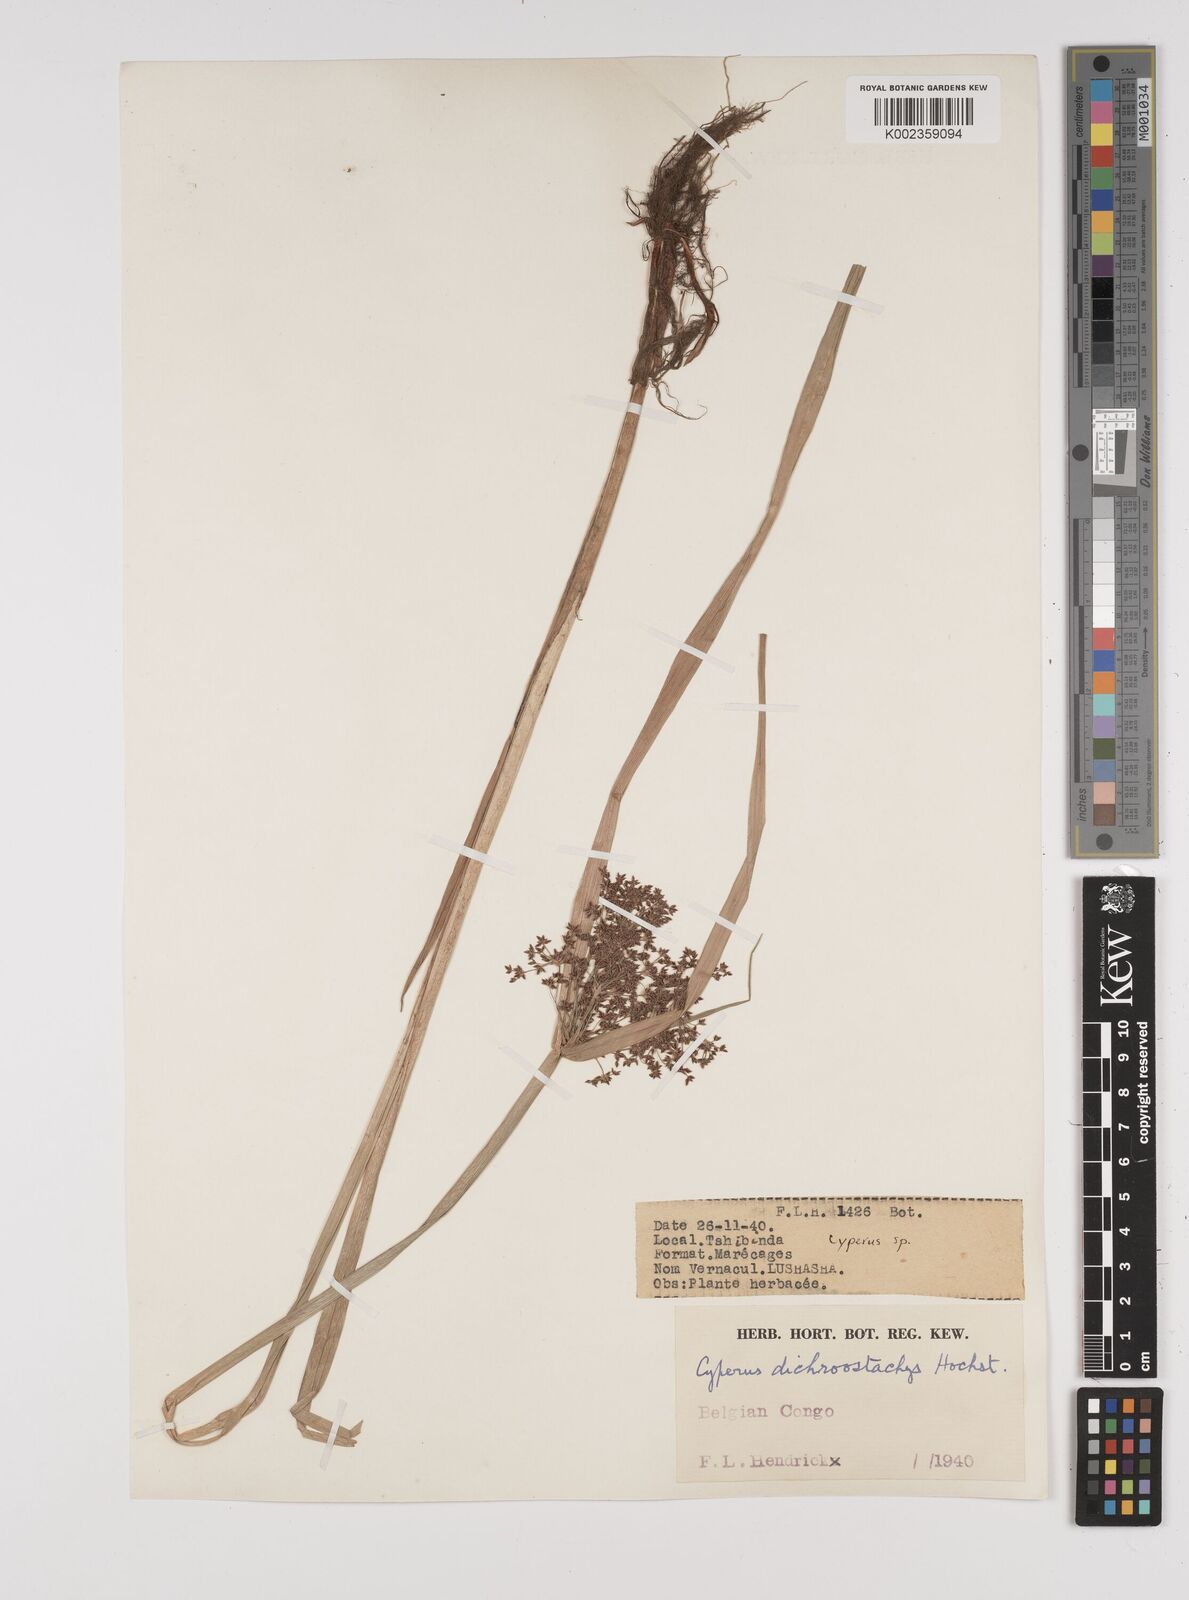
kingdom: Plantae
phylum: Tracheophyta
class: Liliopsida
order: Poales
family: Cyperaceae
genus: Cyperus
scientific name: Cyperus dichrostachyus
